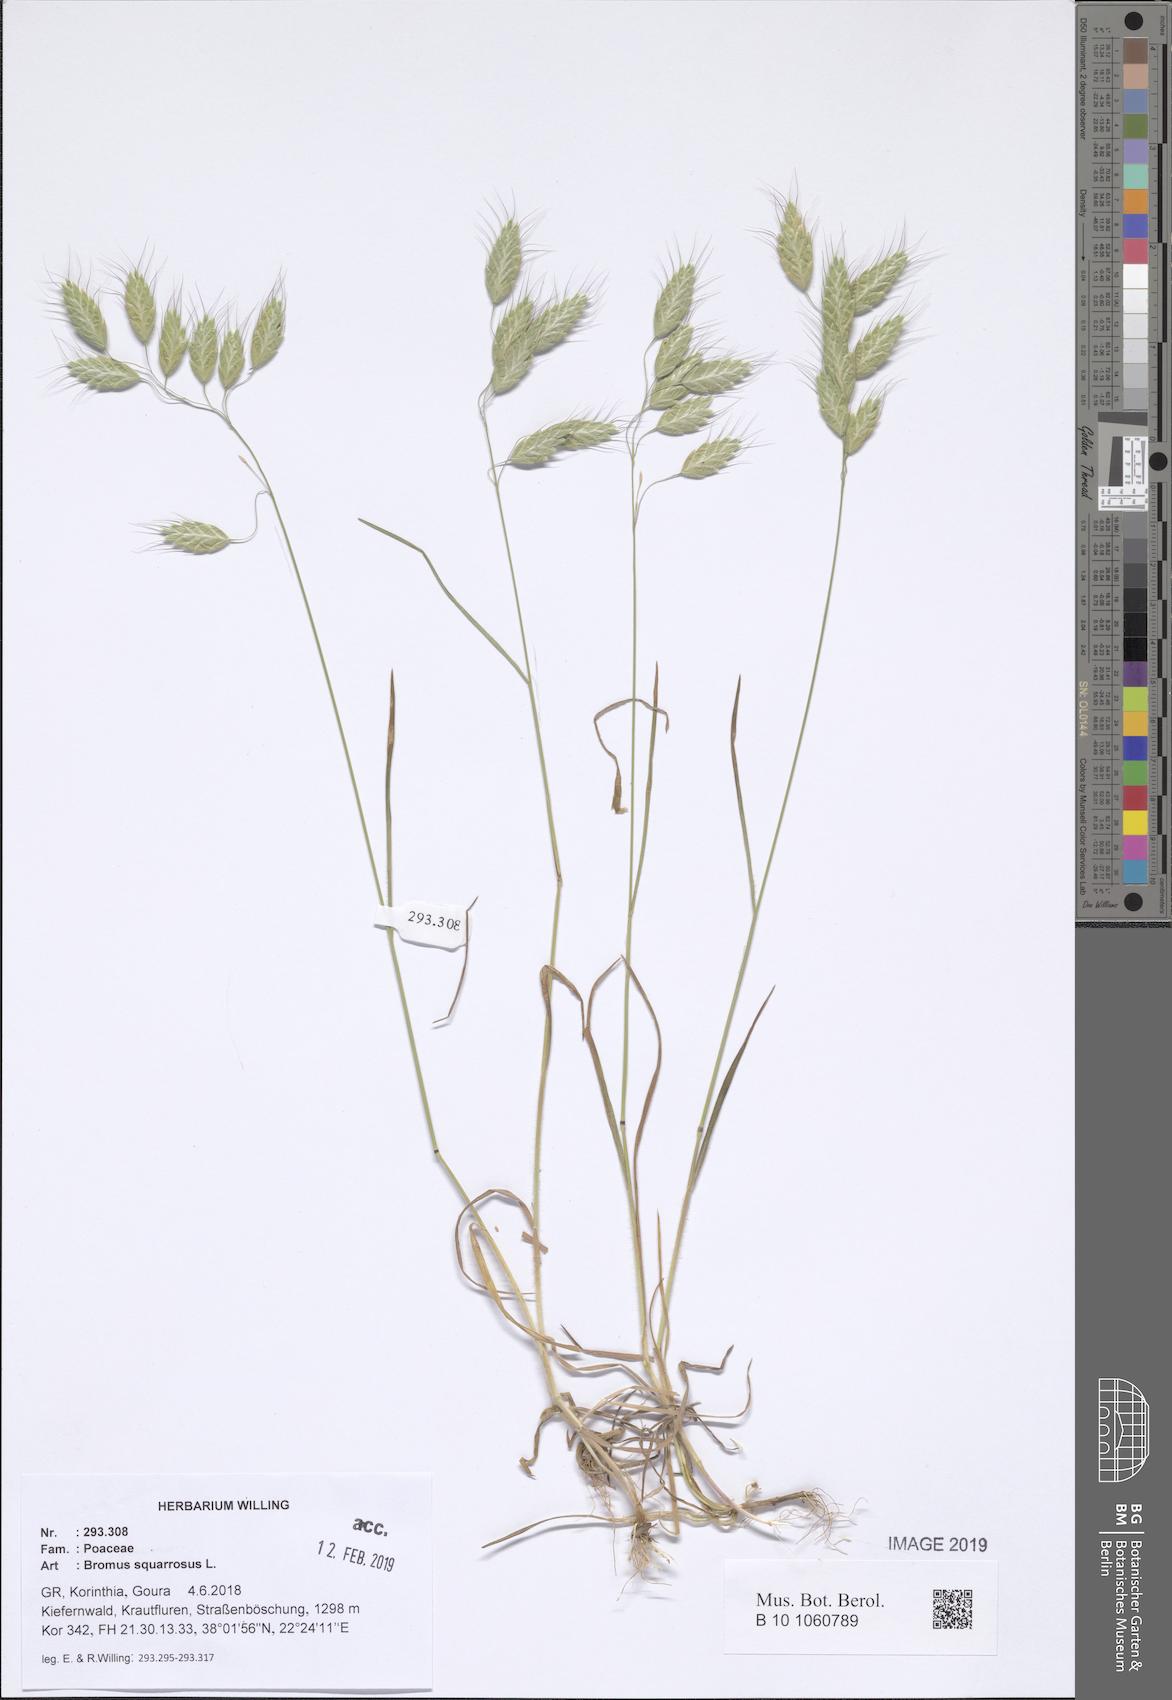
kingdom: Plantae
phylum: Tracheophyta
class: Liliopsida
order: Poales
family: Poaceae
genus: Bromus
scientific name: Bromus squarrosus
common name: Corn brome
